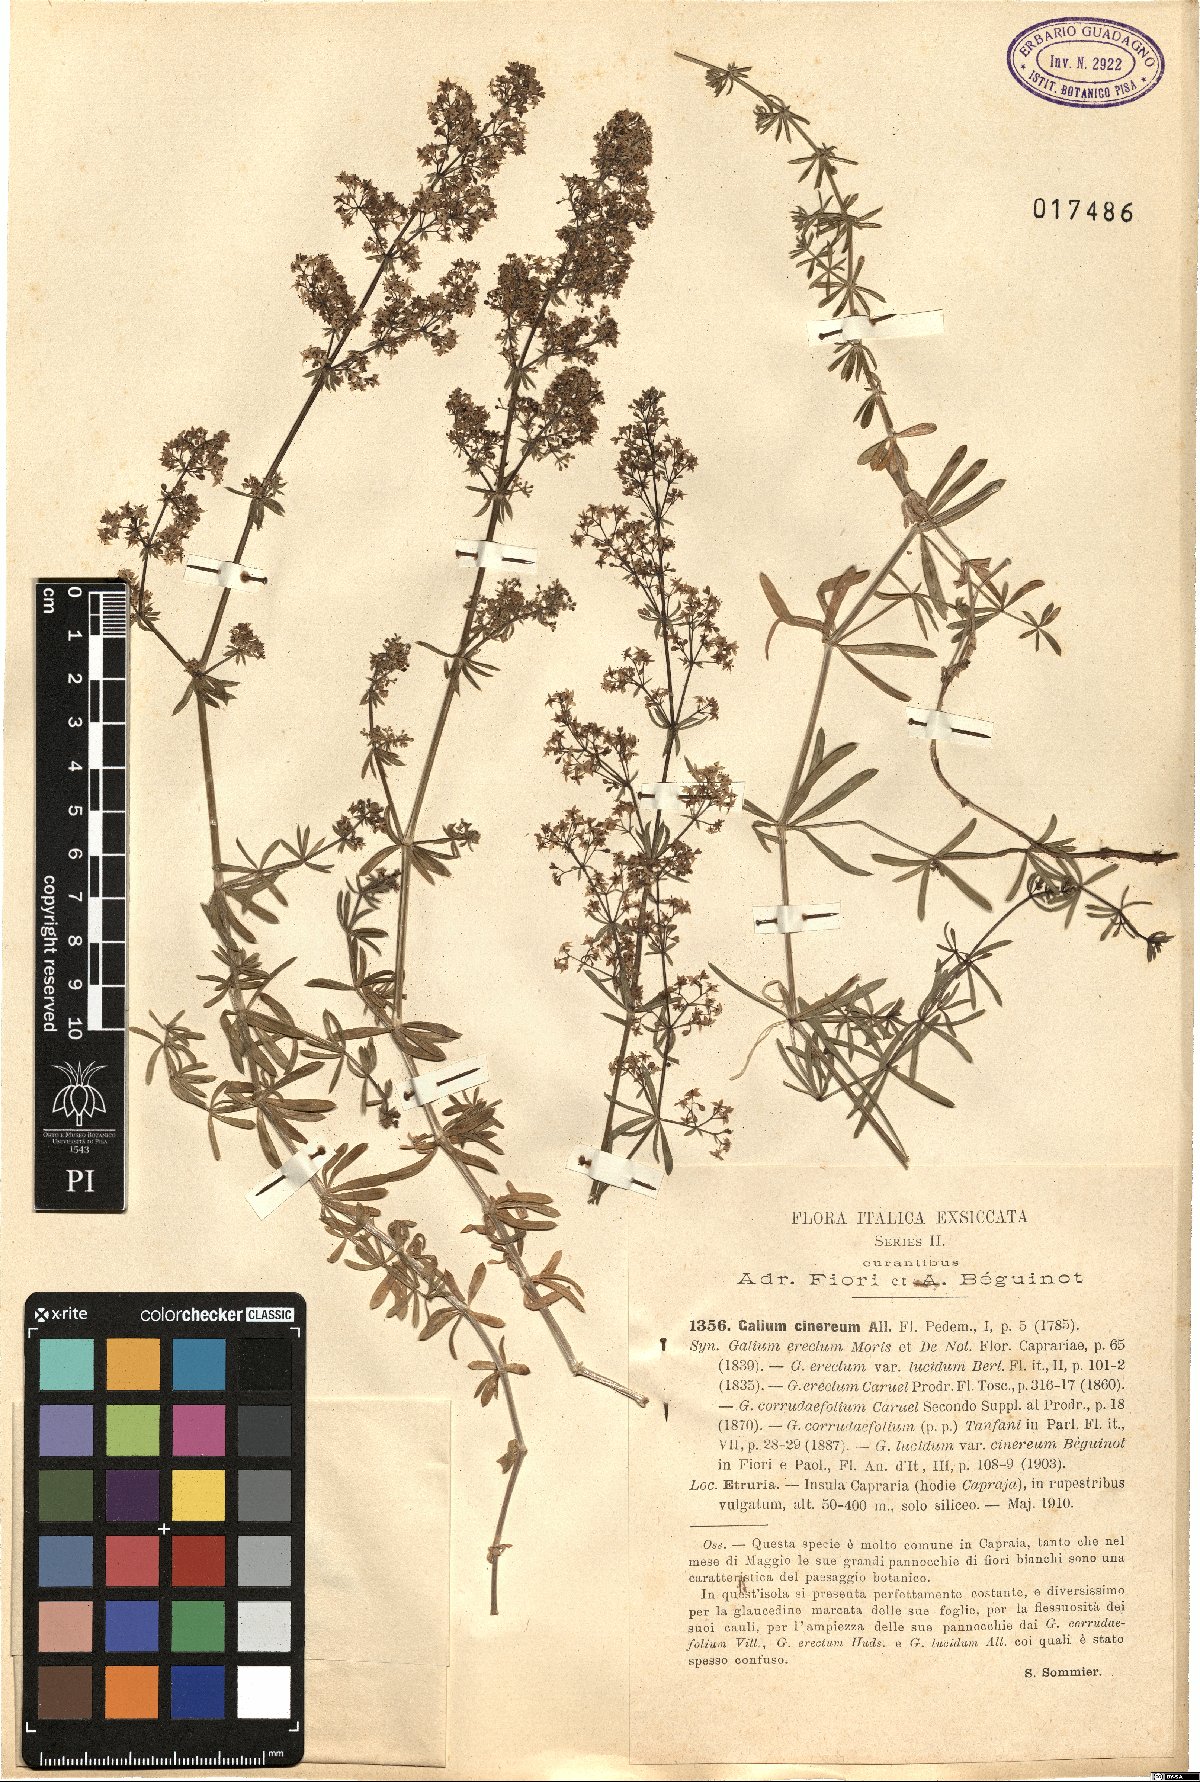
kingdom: Plantae
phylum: Tracheophyta
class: Magnoliopsida
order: Gentianales
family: Rubiaceae
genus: Galium
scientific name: Galium cinereum
